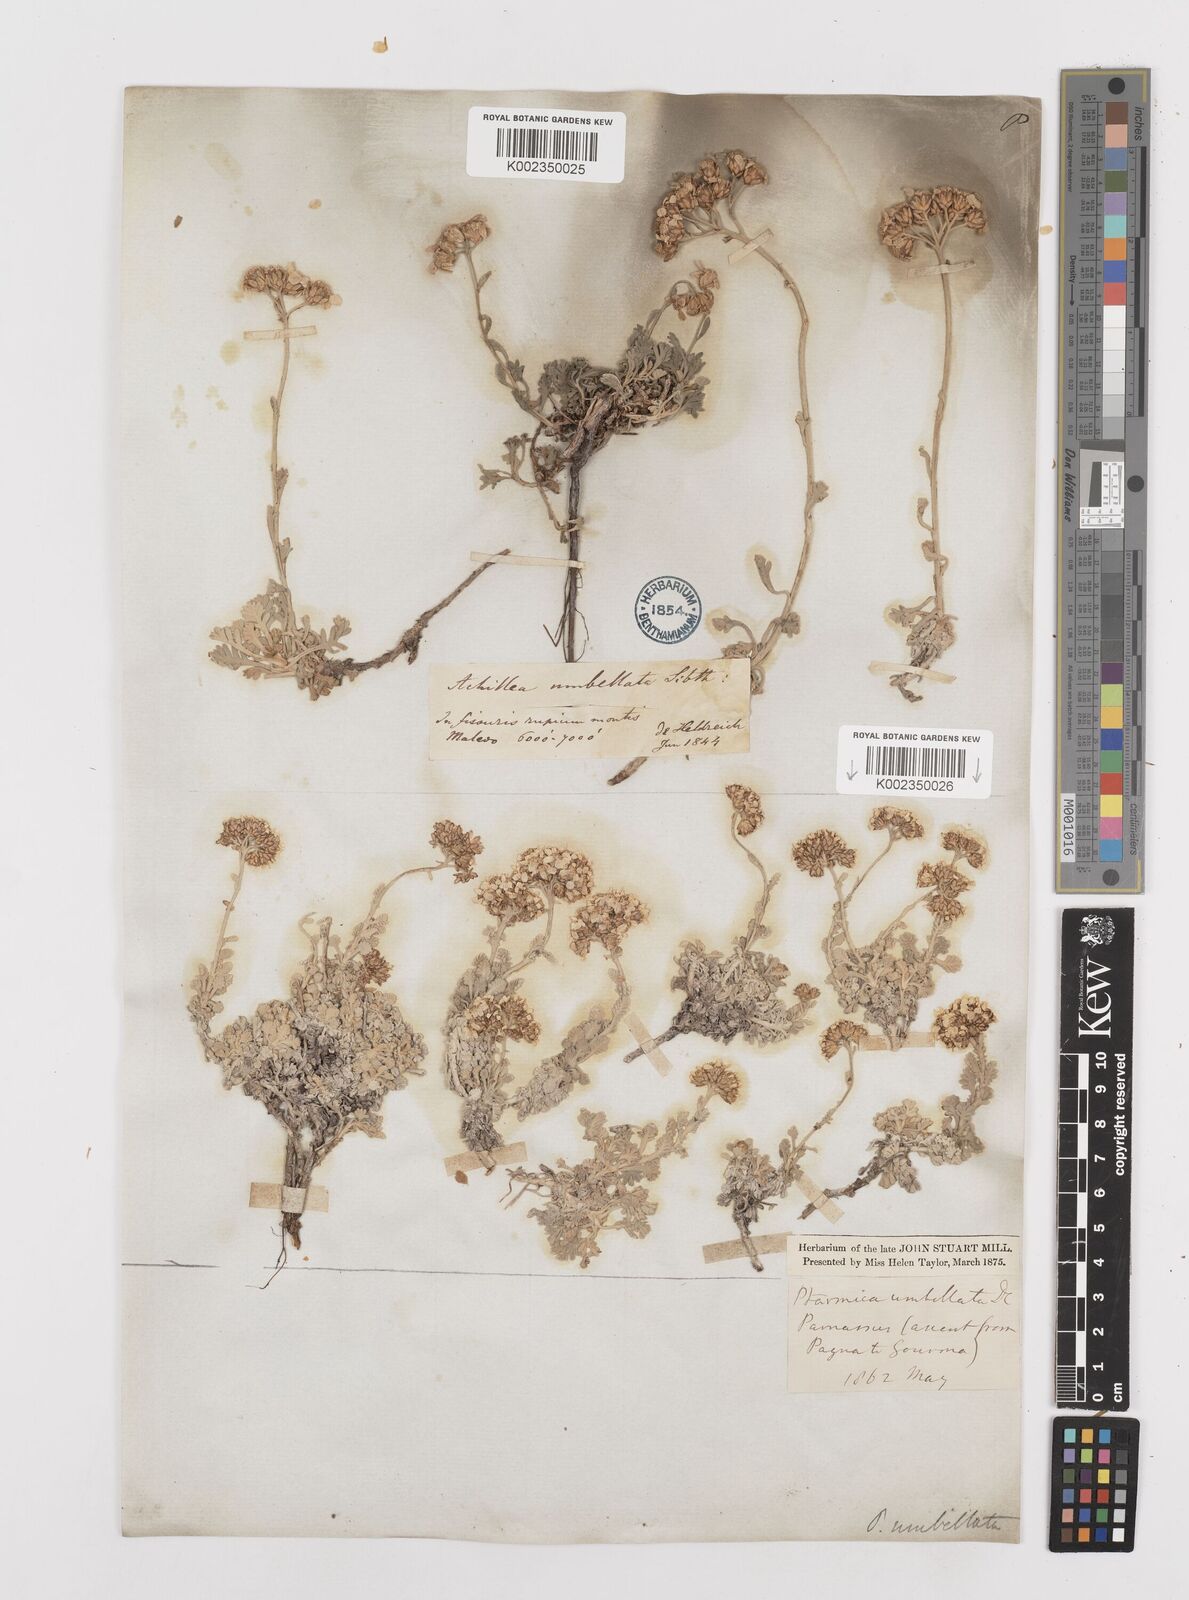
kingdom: Plantae
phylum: Tracheophyta
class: Magnoliopsida
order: Asterales
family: Asteraceae
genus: Achillea
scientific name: Achillea umbellata
